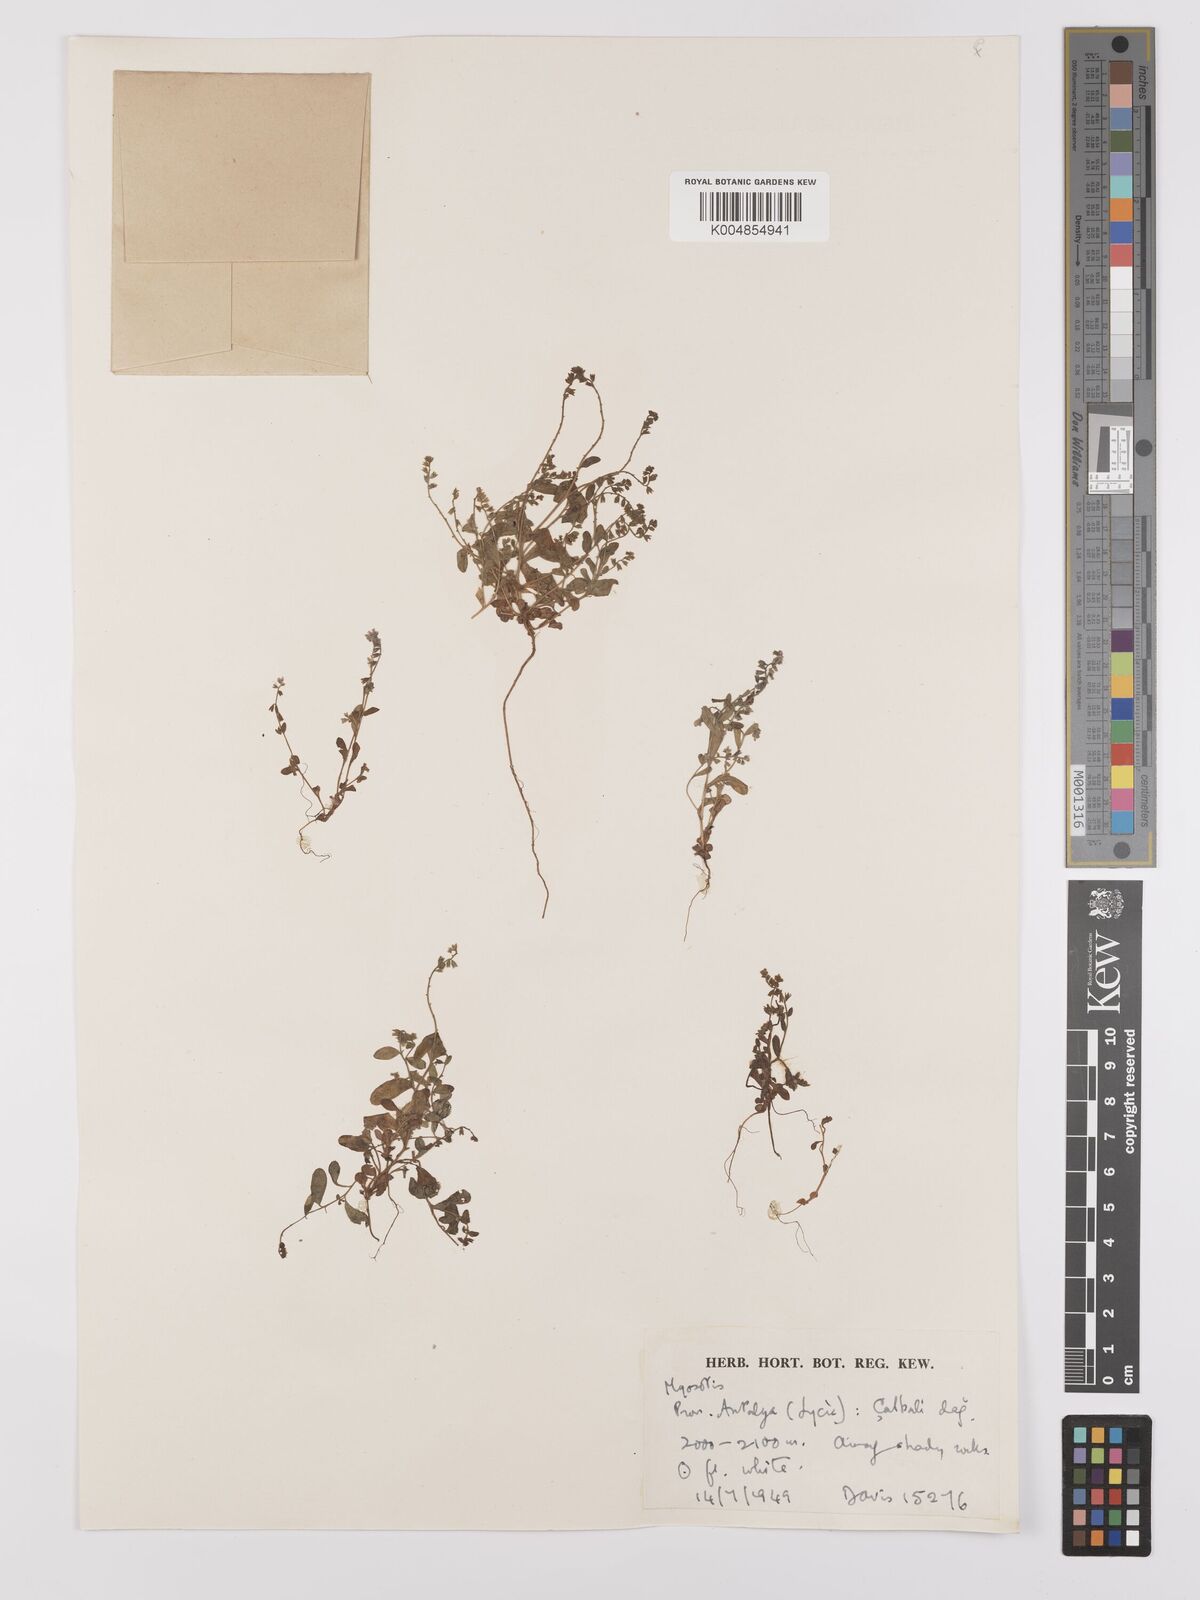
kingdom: Plantae
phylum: Tracheophyta
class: Magnoliopsida
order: Boraginales
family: Boraginaceae
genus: Myosotis
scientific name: Myosotis
